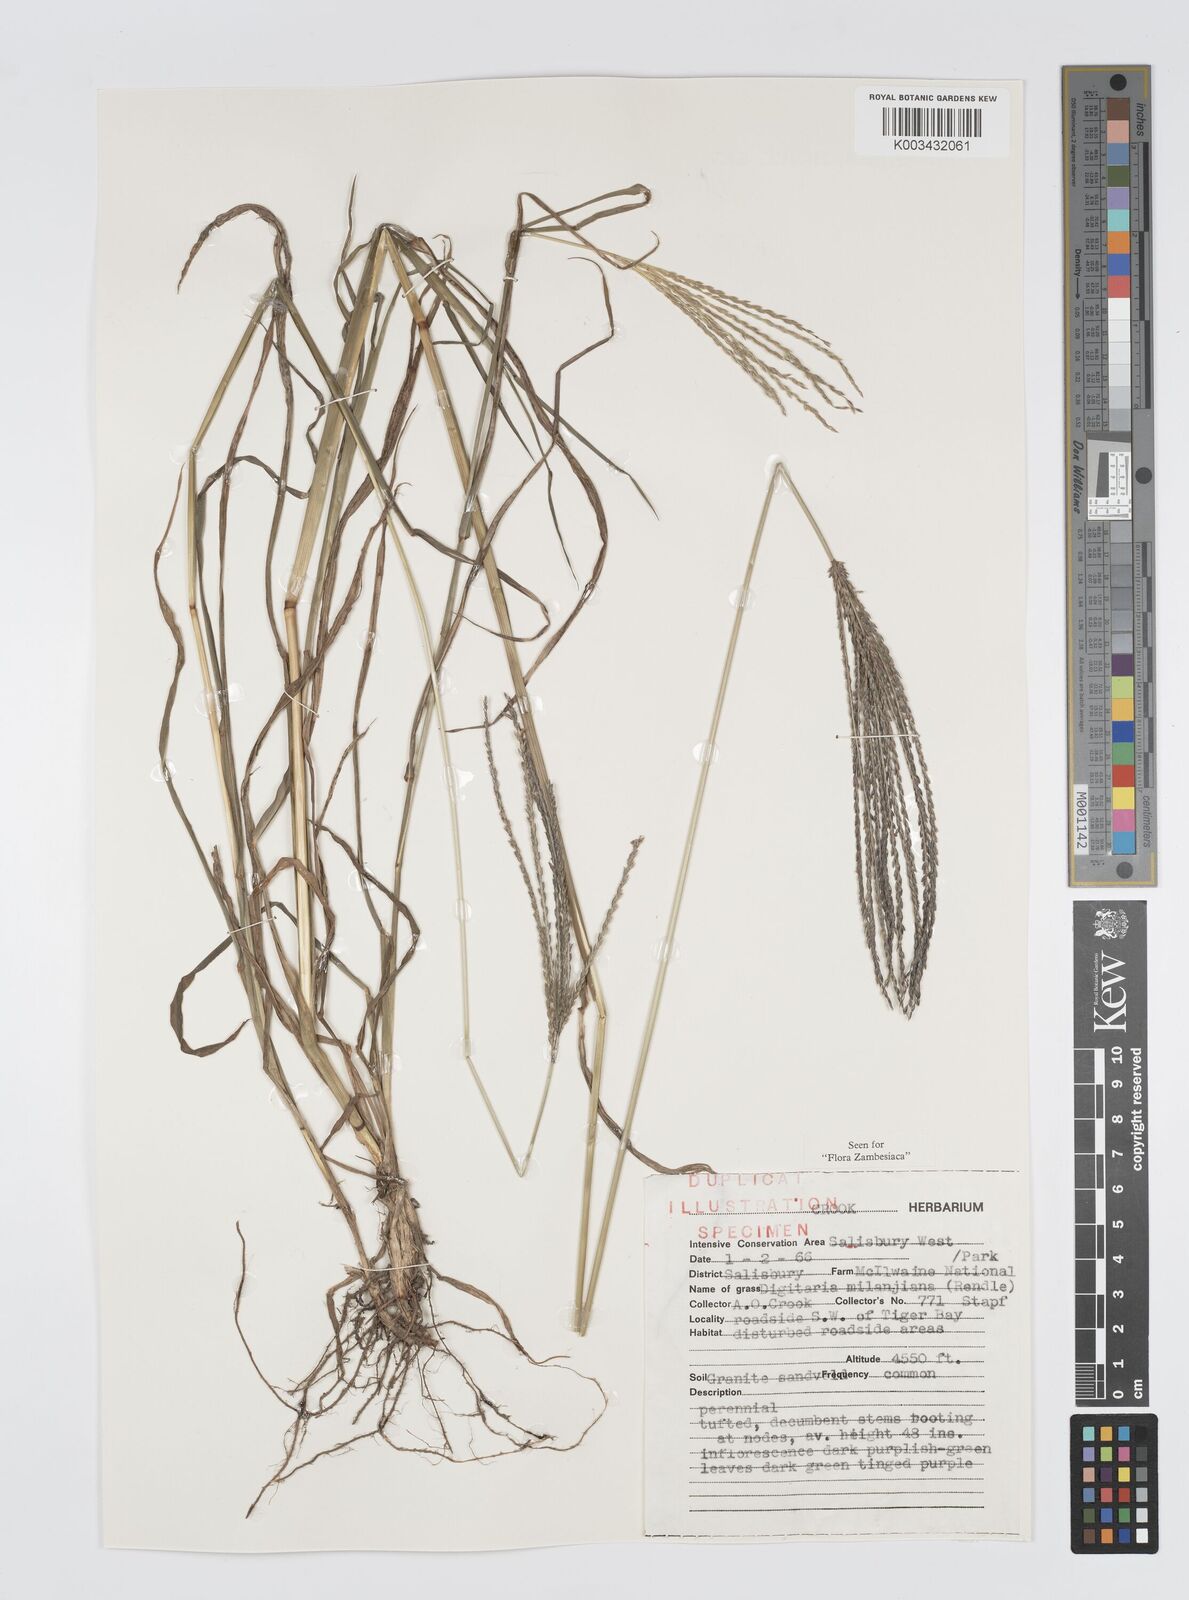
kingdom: Plantae
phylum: Tracheophyta
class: Liliopsida
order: Poales
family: Poaceae
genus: Digitaria
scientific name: Digitaria milanjiana
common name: Madagascar crabgrass
